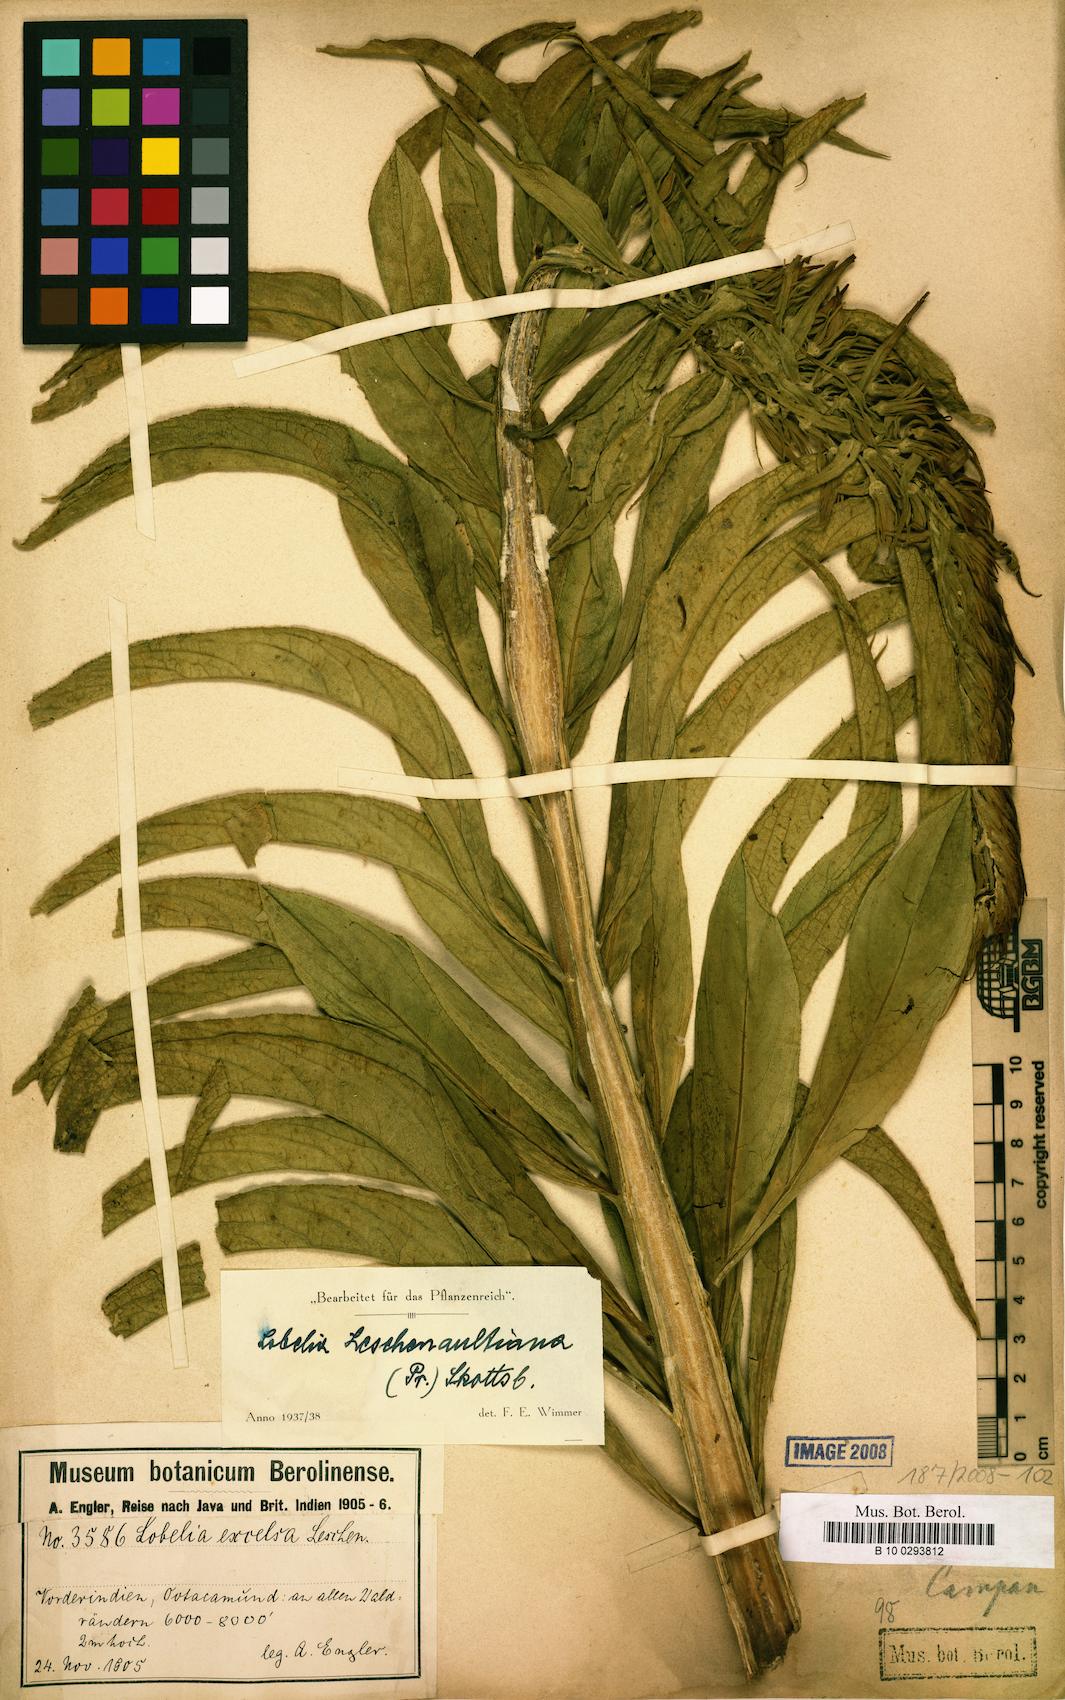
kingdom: Plantae
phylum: Tracheophyta
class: Magnoliopsida
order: Asterales
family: Campanulaceae
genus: Lobelia
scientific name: Lobelia leschenaultiana
